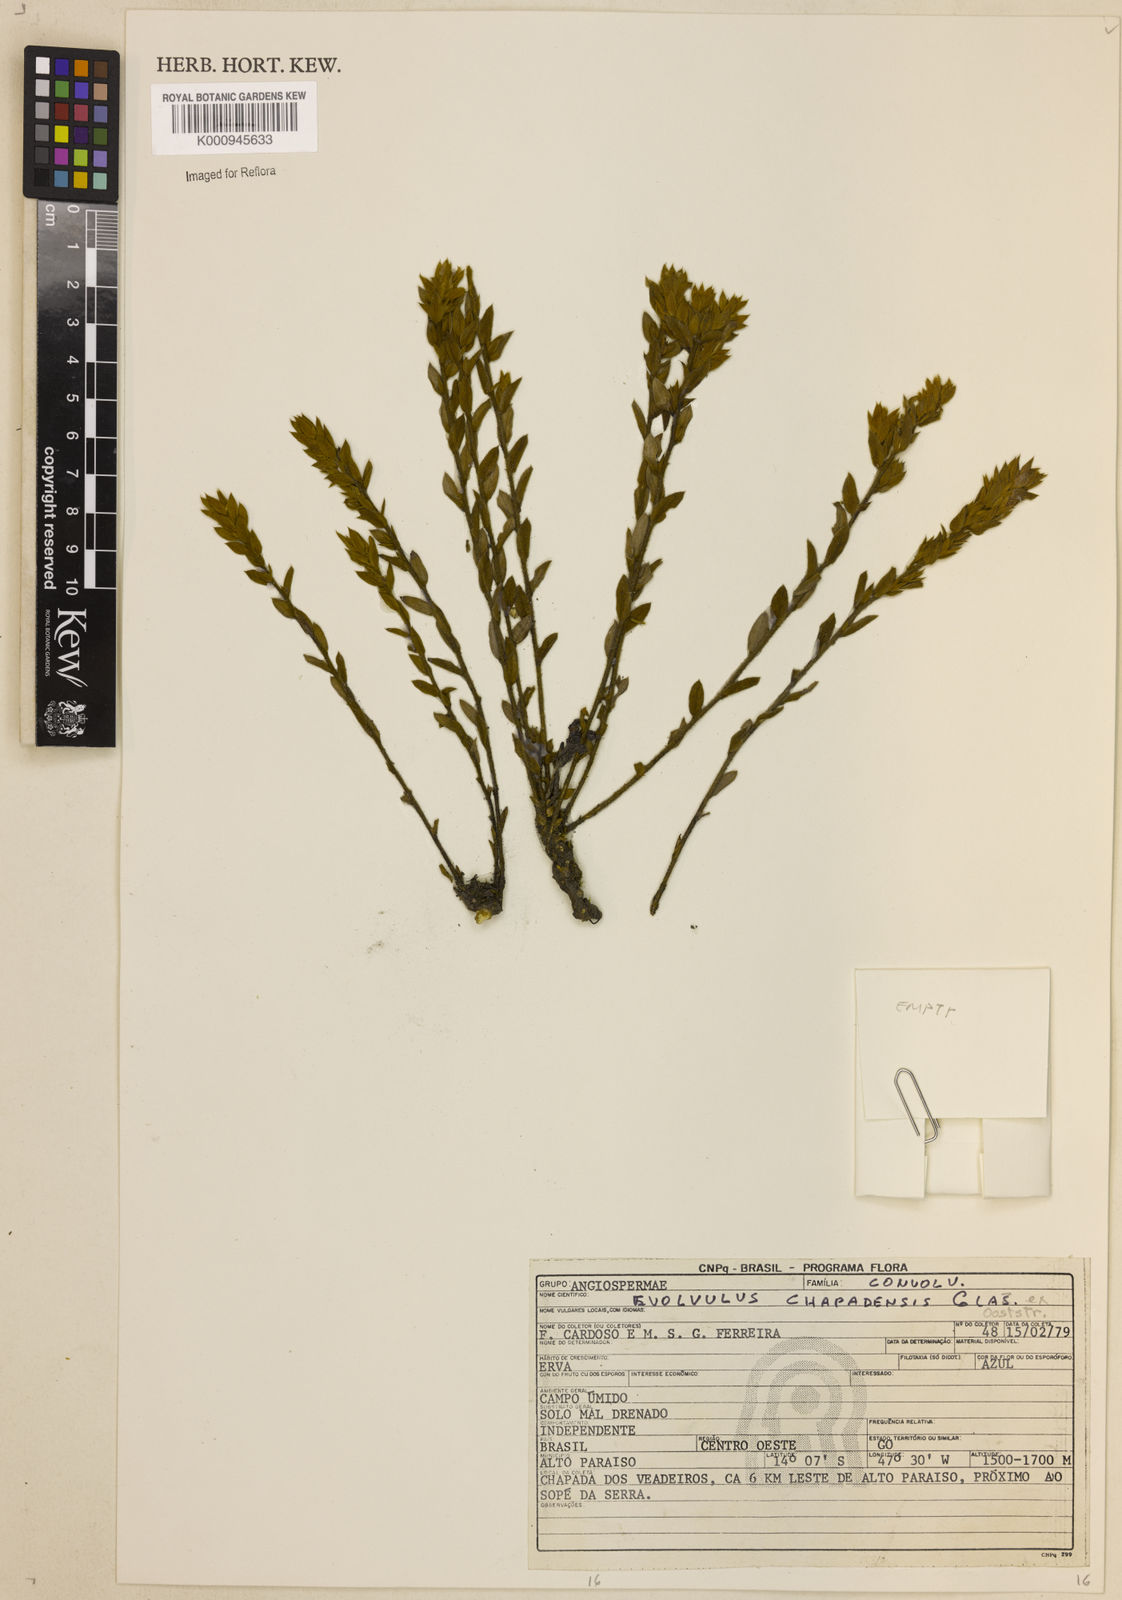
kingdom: Plantae
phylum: Tracheophyta
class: Magnoliopsida
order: Solanales
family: Convolvulaceae
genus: Evolvulus
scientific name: Evolvulus
